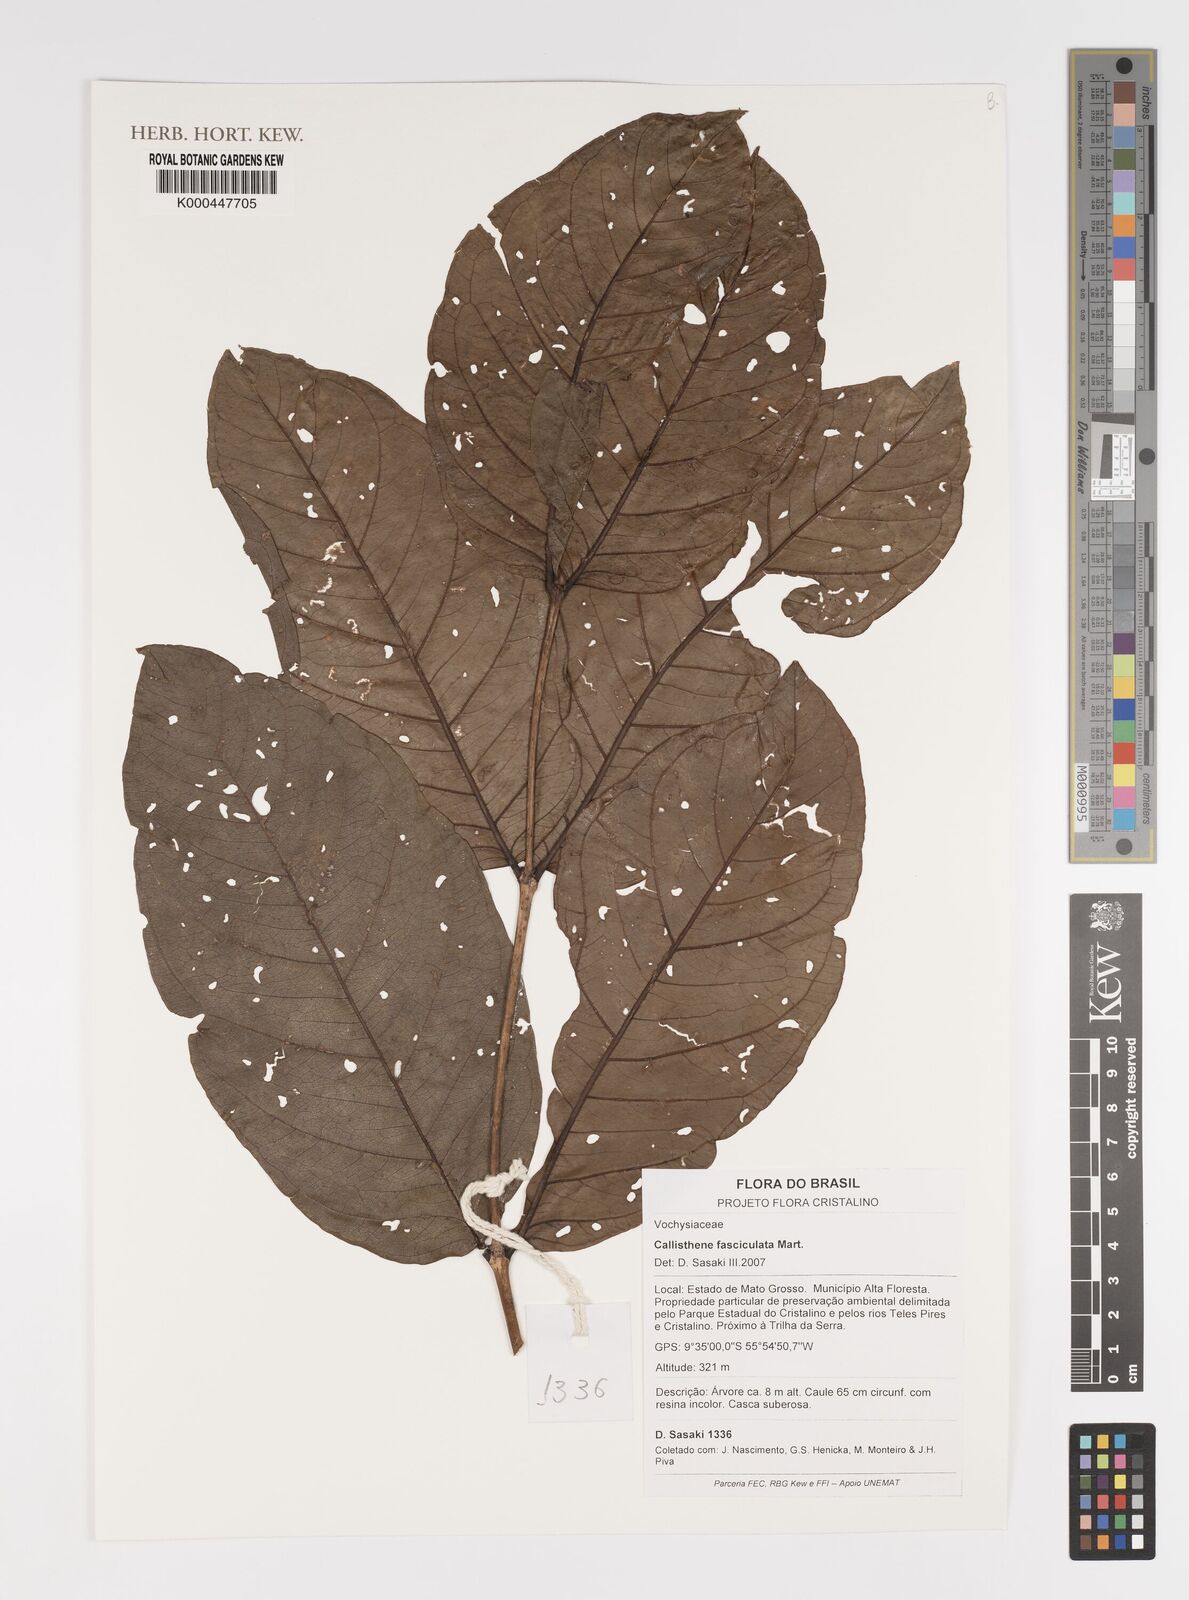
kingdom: Plantae
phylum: Tracheophyta
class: Magnoliopsida
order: Myrtales
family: Vochysiaceae
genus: Callisthene
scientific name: Callisthene fasciculata
